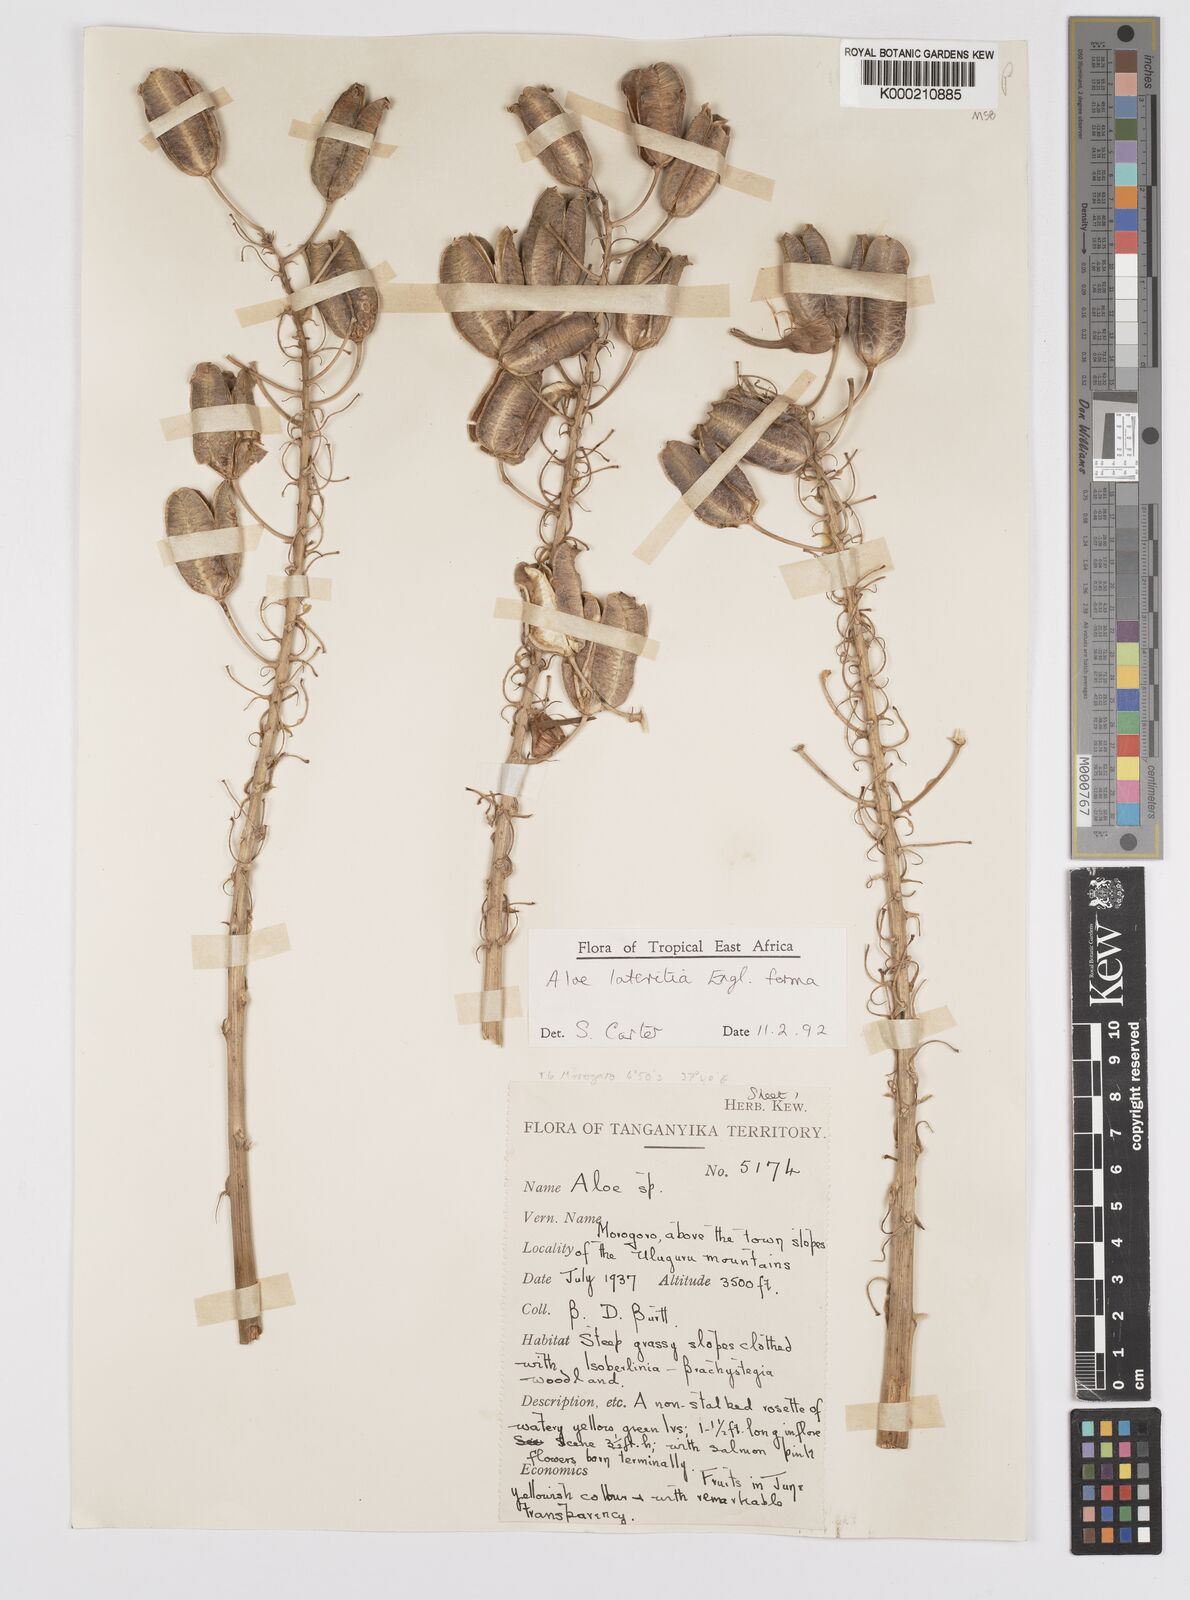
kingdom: Plantae
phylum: Tracheophyta
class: Liliopsida
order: Asparagales
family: Asphodelaceae
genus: Aloe
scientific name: Aloe lateritia
